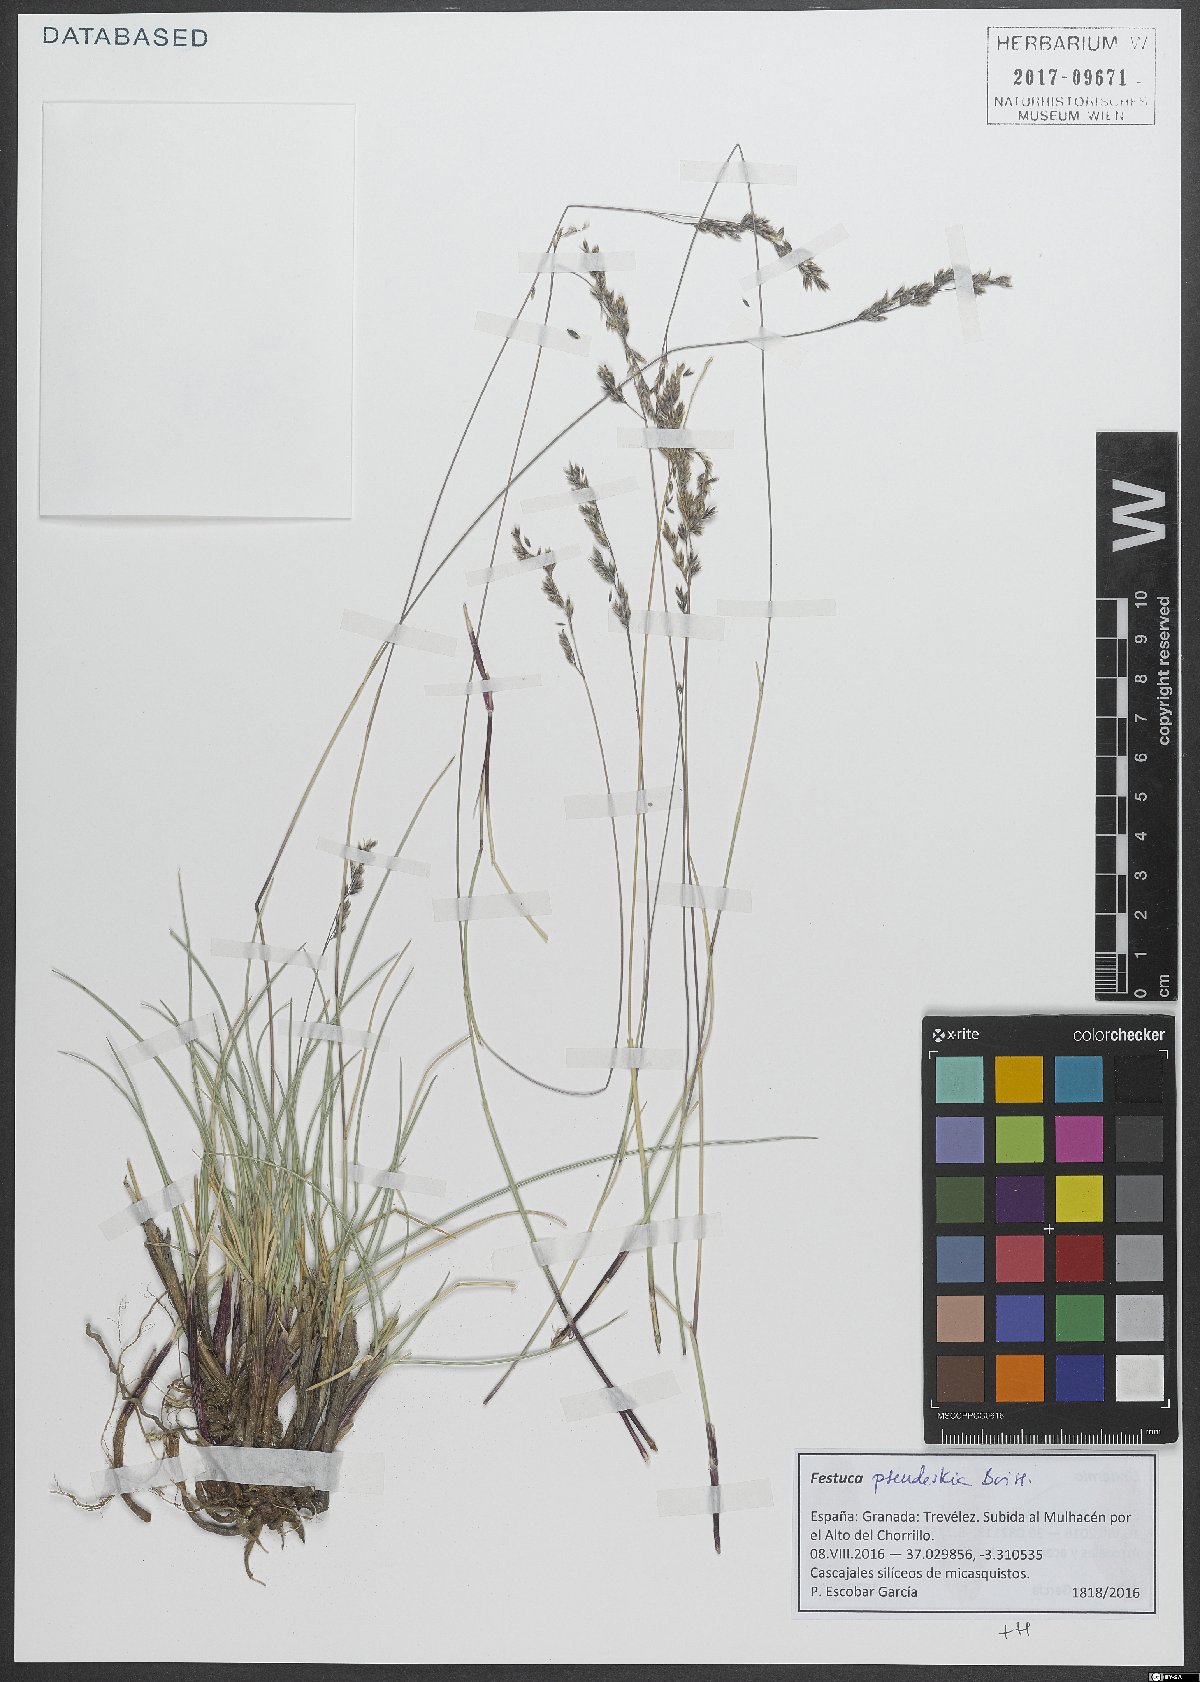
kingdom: Plantae
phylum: Tracheophyta
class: Liliopsida
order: Poales
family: Poaceae
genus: Festuca
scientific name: Festuca pseudeskia
